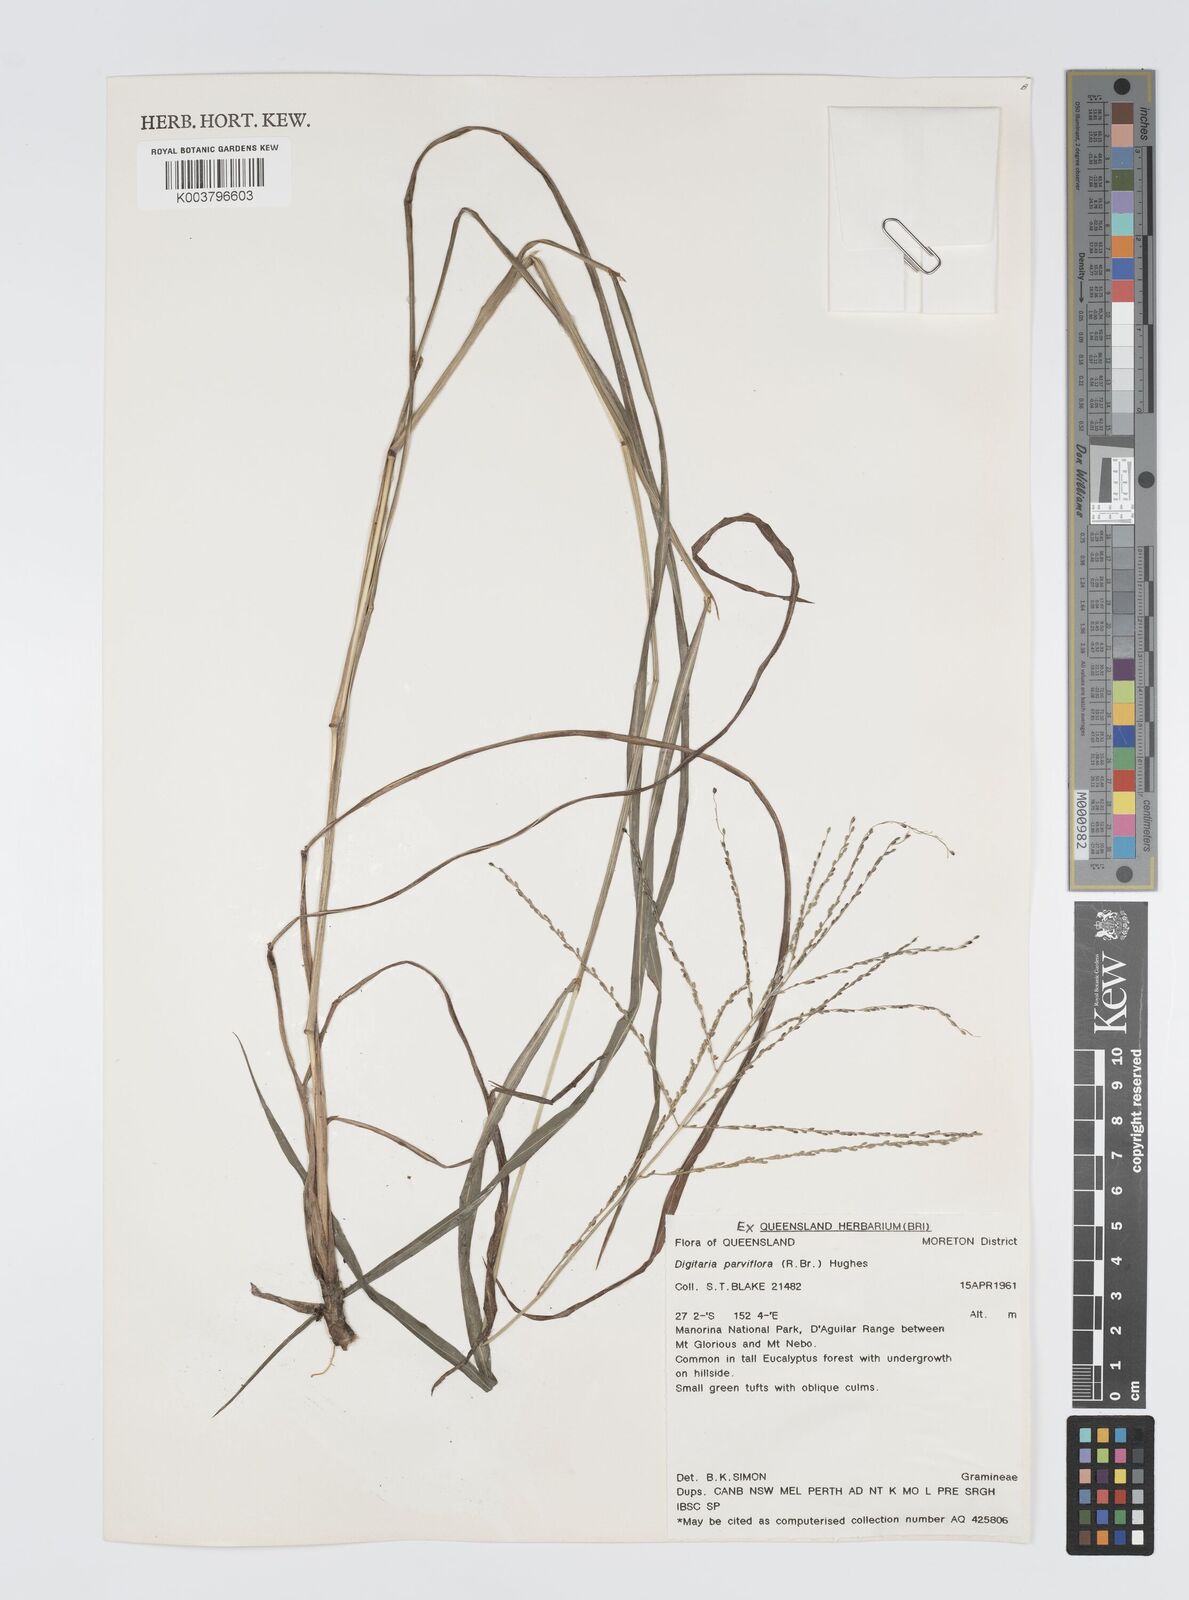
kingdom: Plantae
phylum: Tracheophyta
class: Liliopsida
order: Poales
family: Poaceae
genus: Digitaria
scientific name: Digitaria parviflora
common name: Small-flower finger grass
